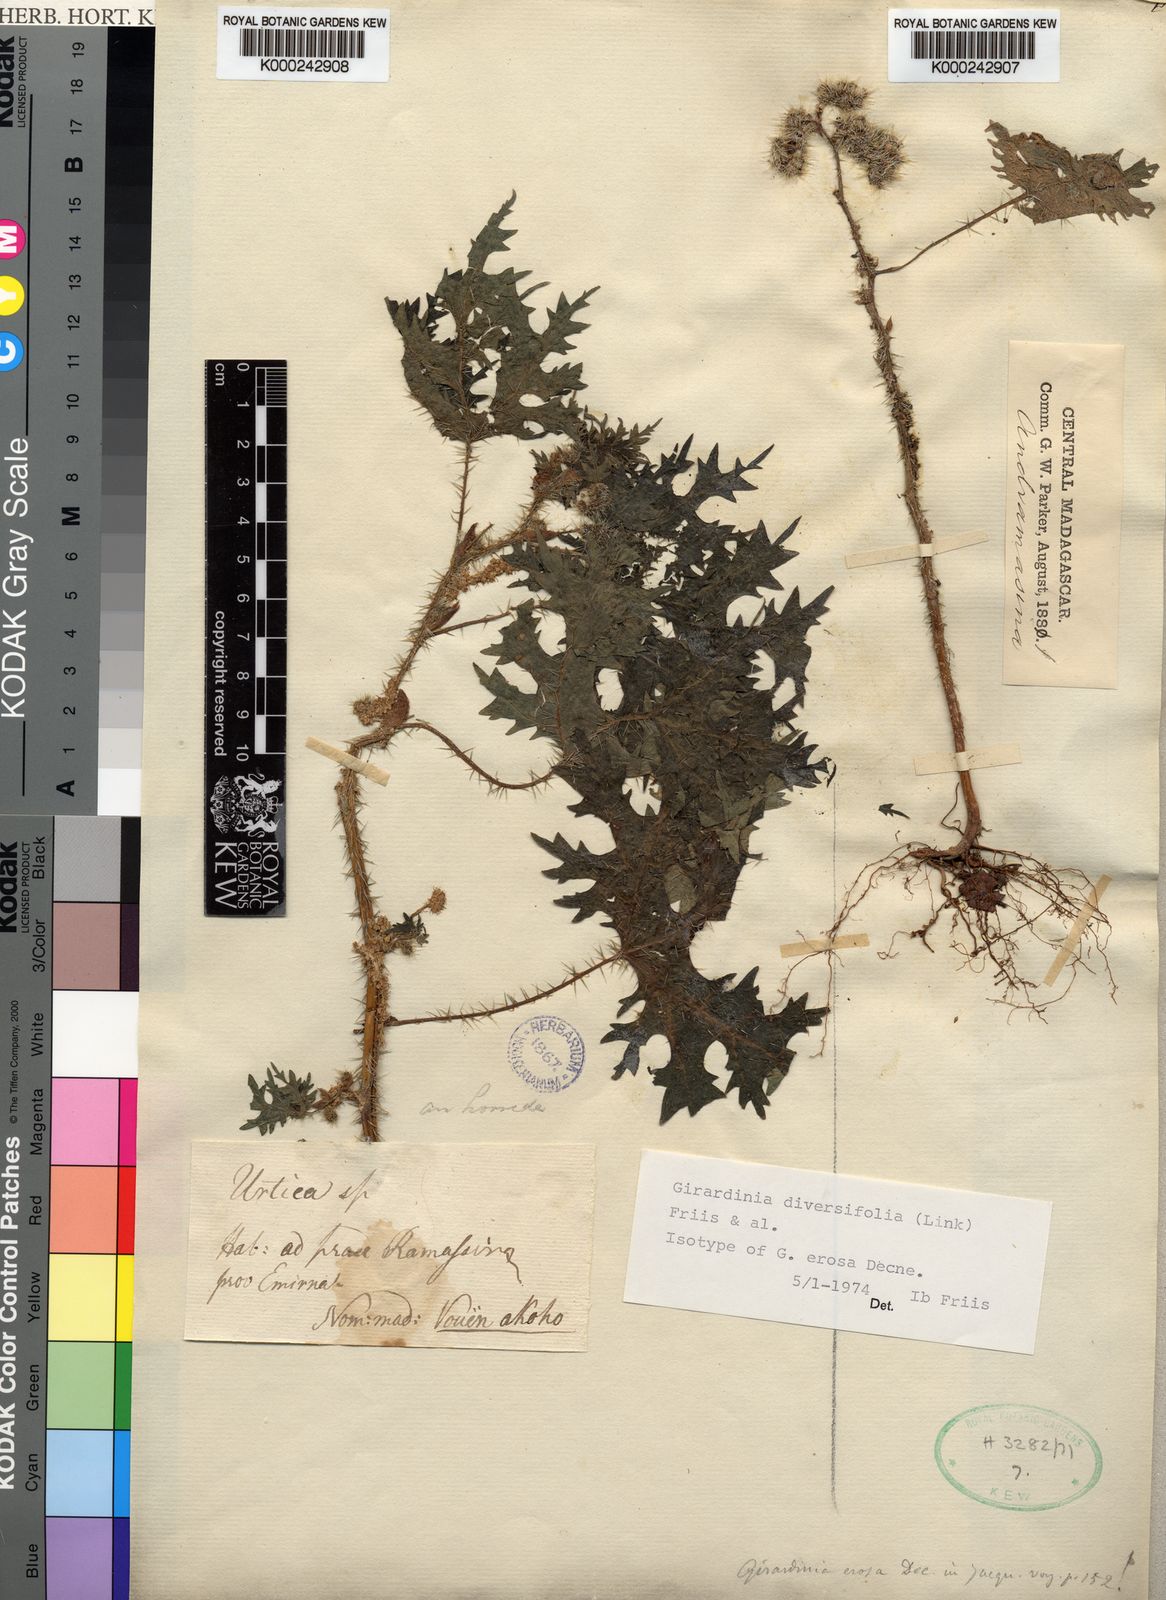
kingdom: Plantae
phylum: Tracheophyta
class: Magnoliopsida
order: Rosales
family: Urticaceae
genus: Girardinia
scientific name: Girardinia diversifolia
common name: Himalayan-nettle
